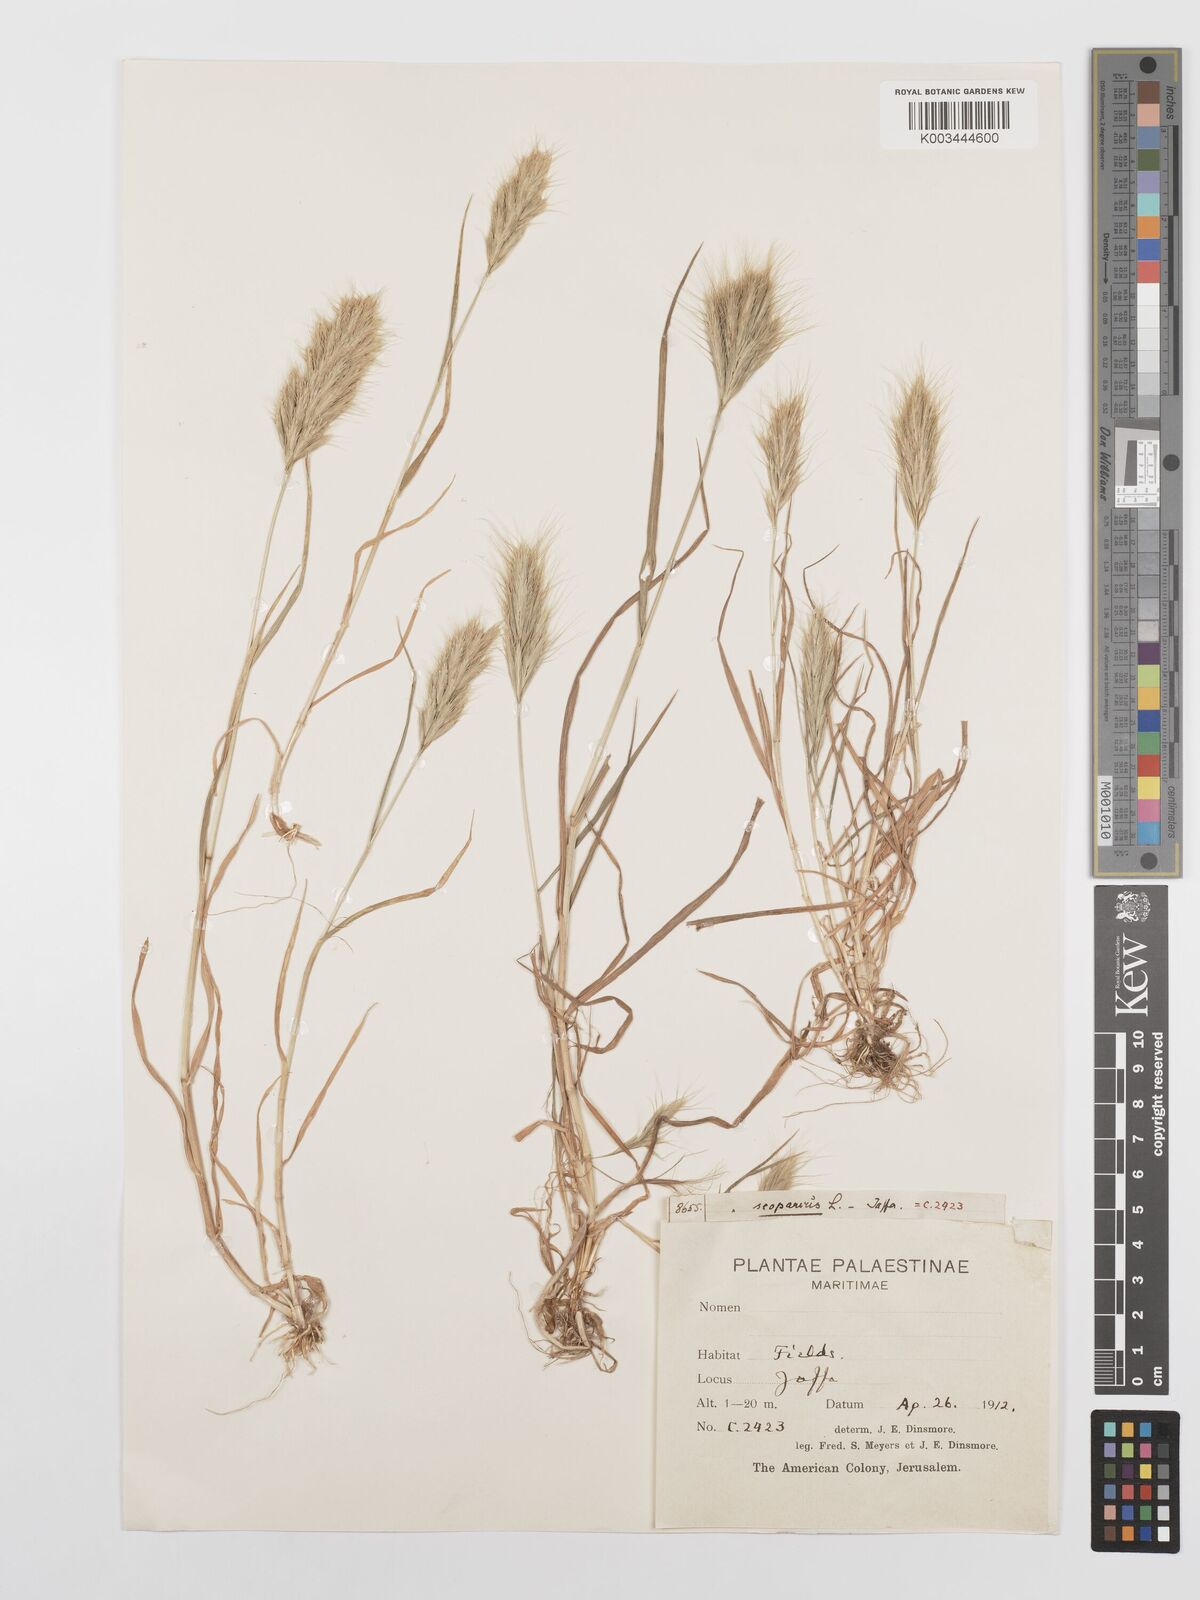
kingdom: Plantae
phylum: Tracheophyta
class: Liliopsida
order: Poales
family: Poaceae
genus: Bromus
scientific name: Bromus scoparius
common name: Broom brome
